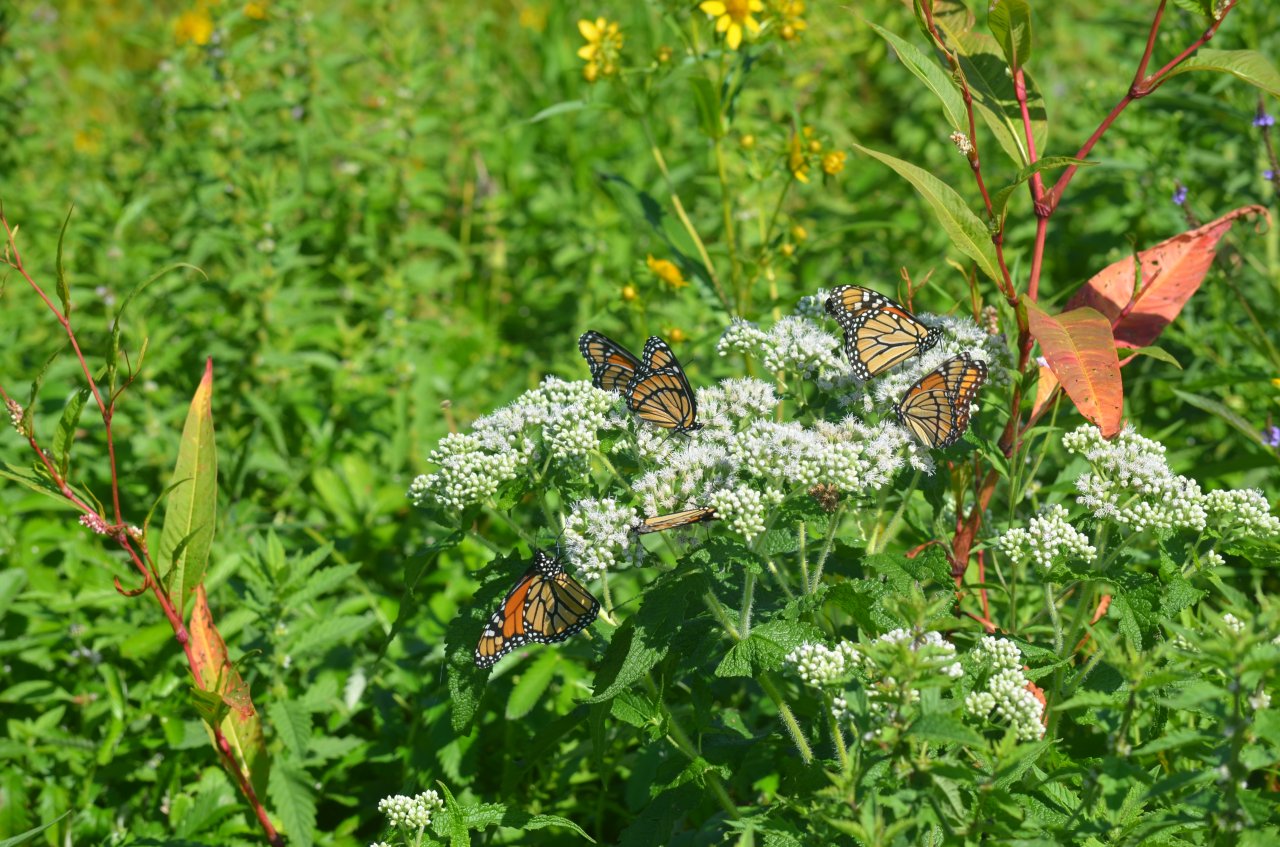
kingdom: Animalia
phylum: Arthropoda
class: Insecta
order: Lepidoptera
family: Nymphalidae
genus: Limenitis
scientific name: Limenitis archippus
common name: Viceroy
